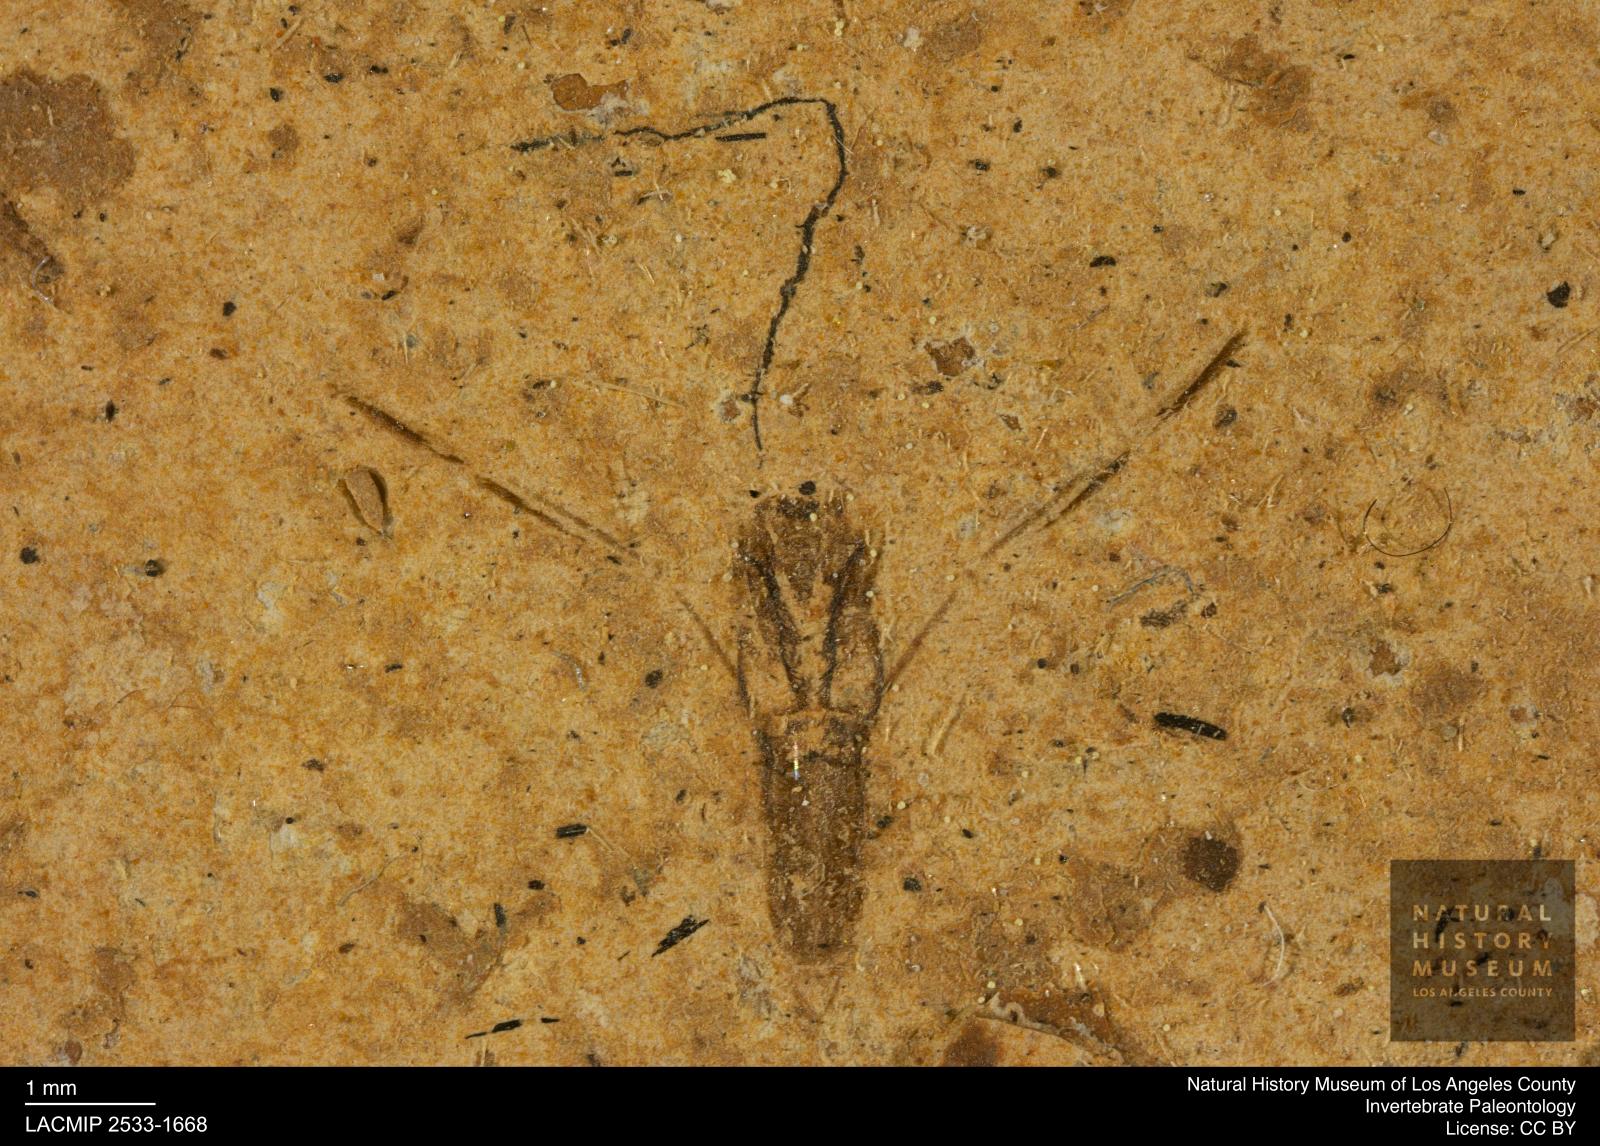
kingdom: Animalia
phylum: Arthropoda
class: Insecta
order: Hemiptera
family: Notonectidae
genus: Notonecta
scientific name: Notonecta
